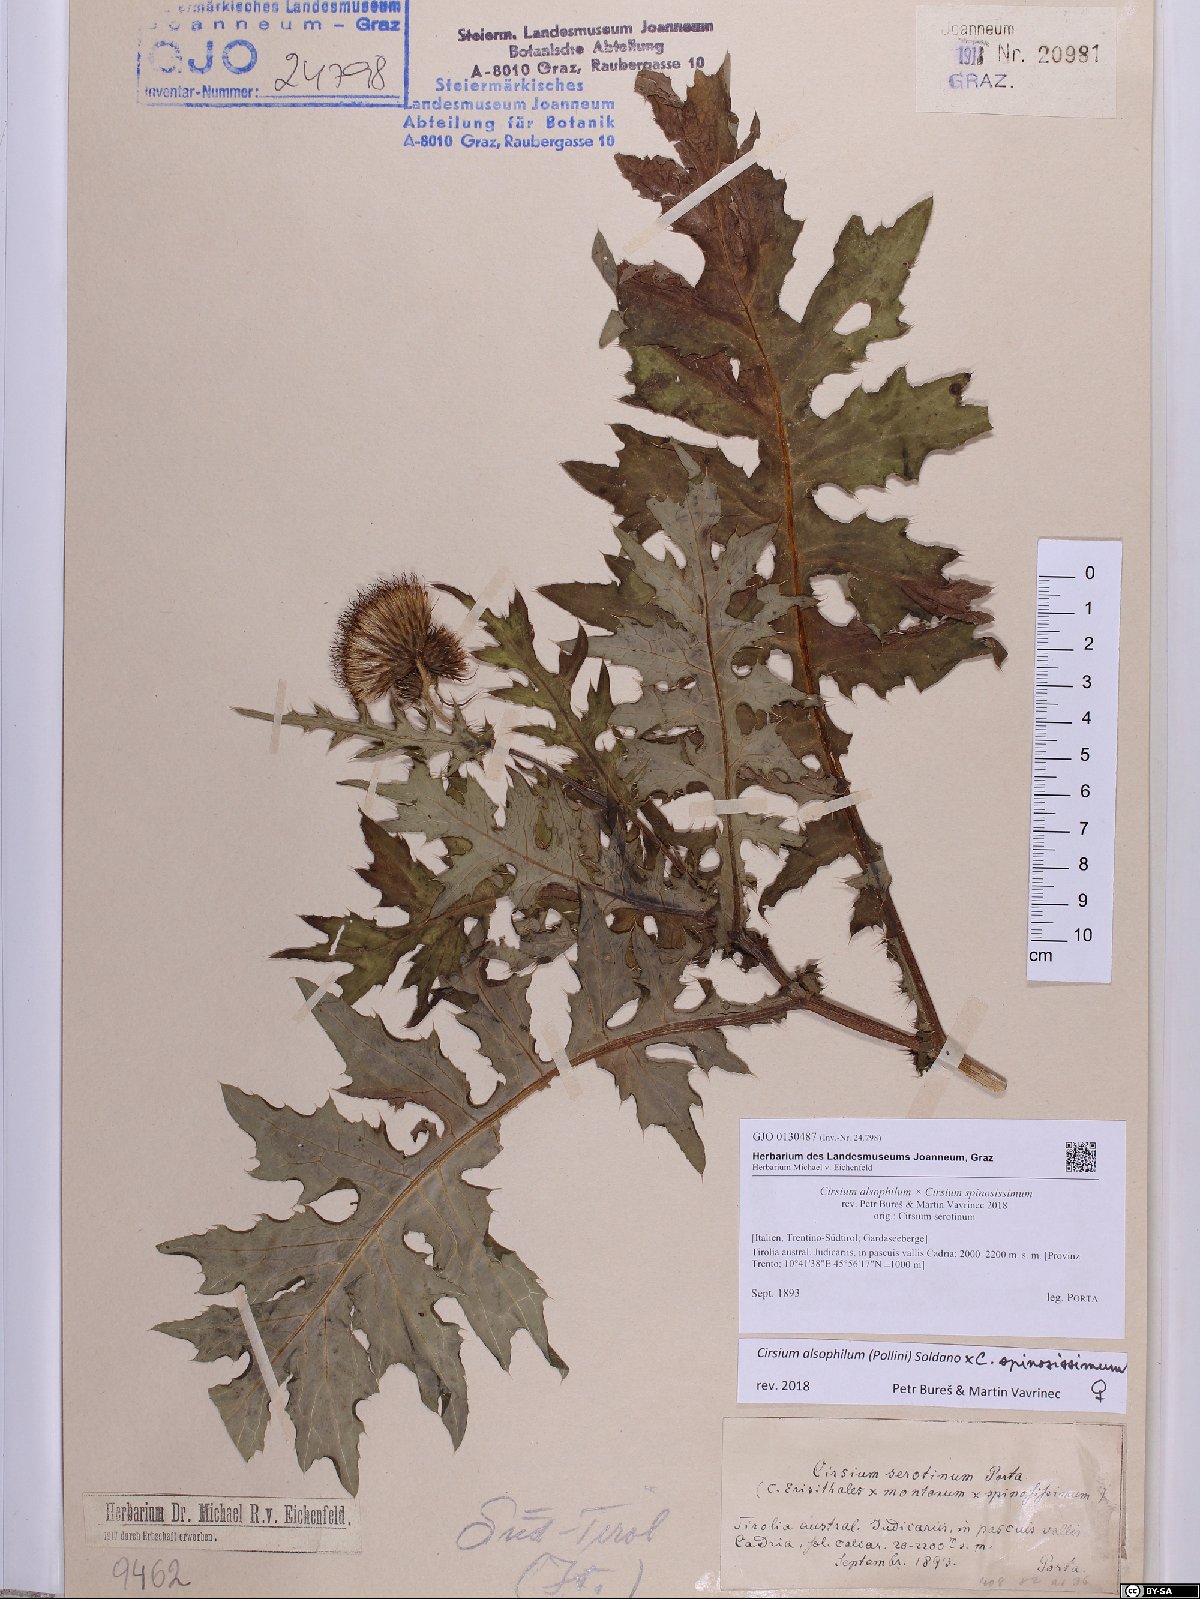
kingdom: Plantae
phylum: Tracheophyta
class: Magnoliopsida
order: Asterales
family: Asteraceae
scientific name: Asteraceae
